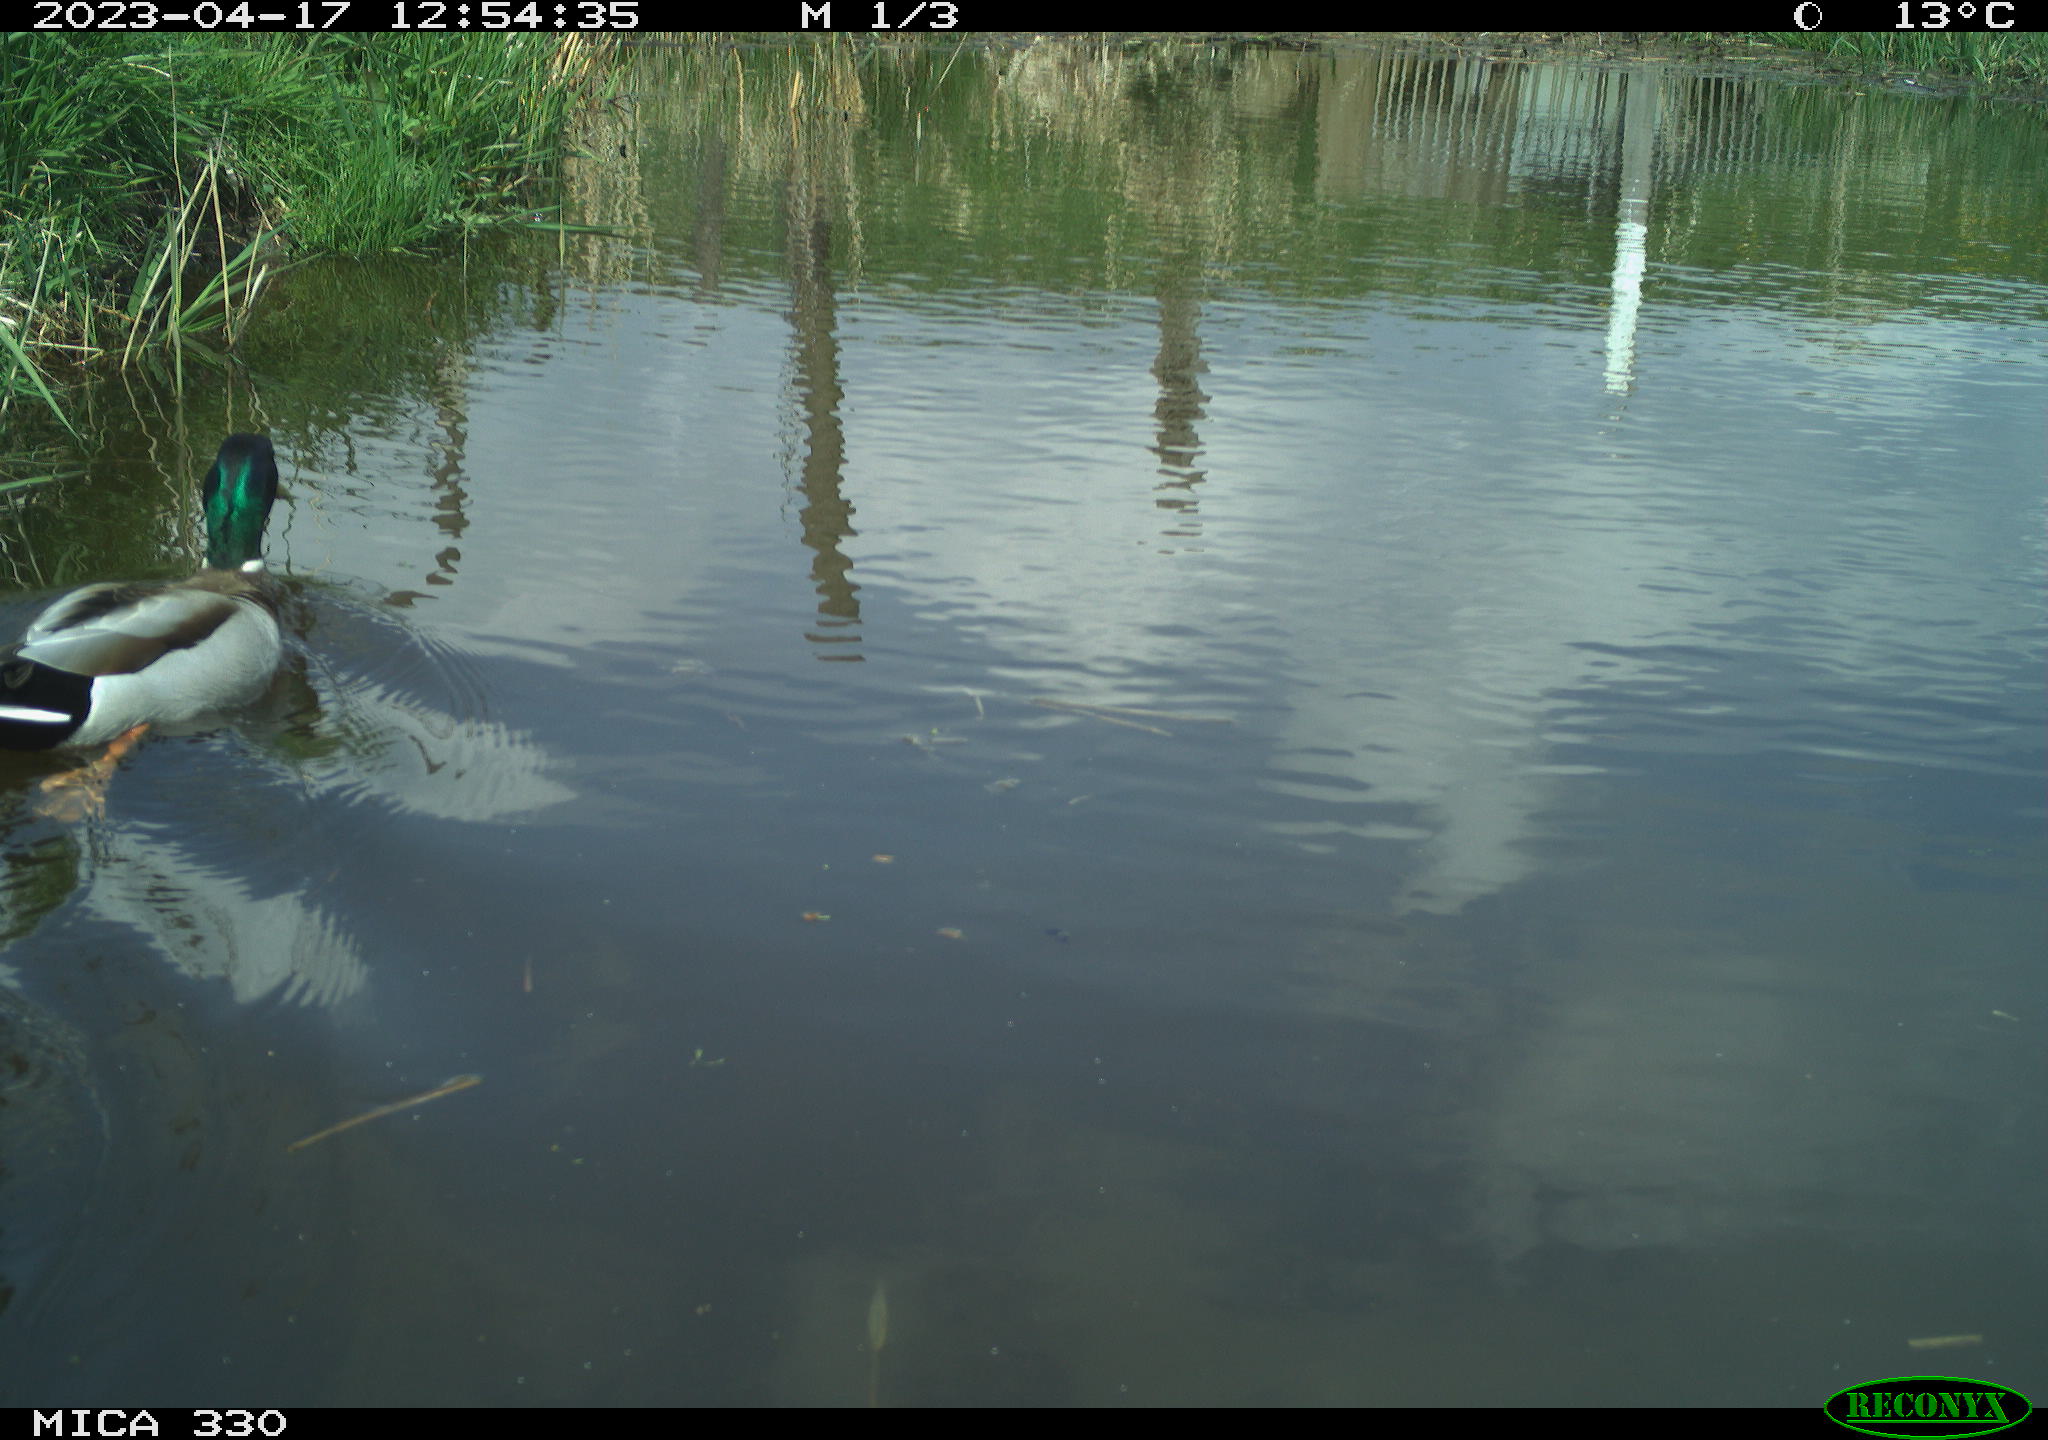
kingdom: Animalia
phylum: Chordata
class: Aves
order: Anseriformes
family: Anatidae
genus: Anas
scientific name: Anas platyrhynchos
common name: Mallard
